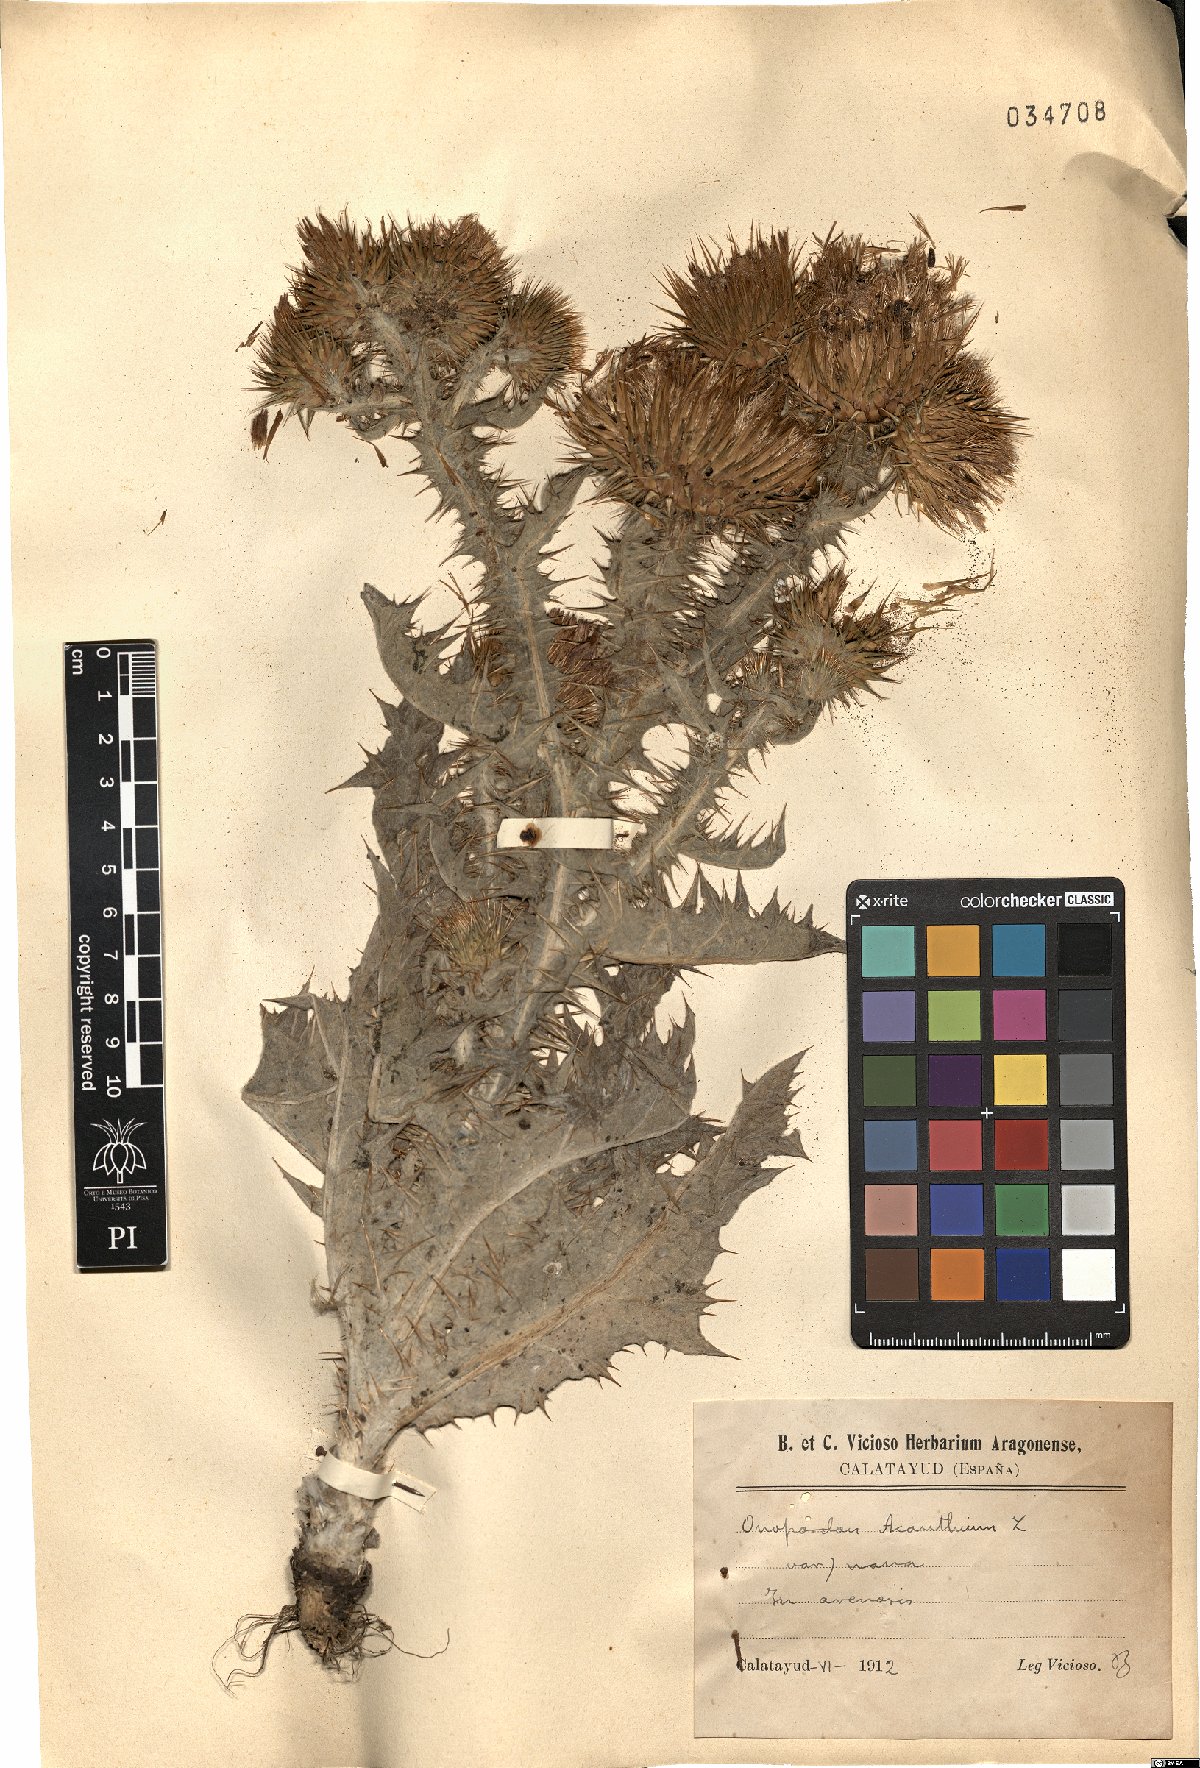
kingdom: Plantae
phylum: Tracheophyta
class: Magnoliopsida
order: Asterales
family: Asteraceae
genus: Onopordum
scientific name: Onopordum acanthium
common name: Scotch thistle
